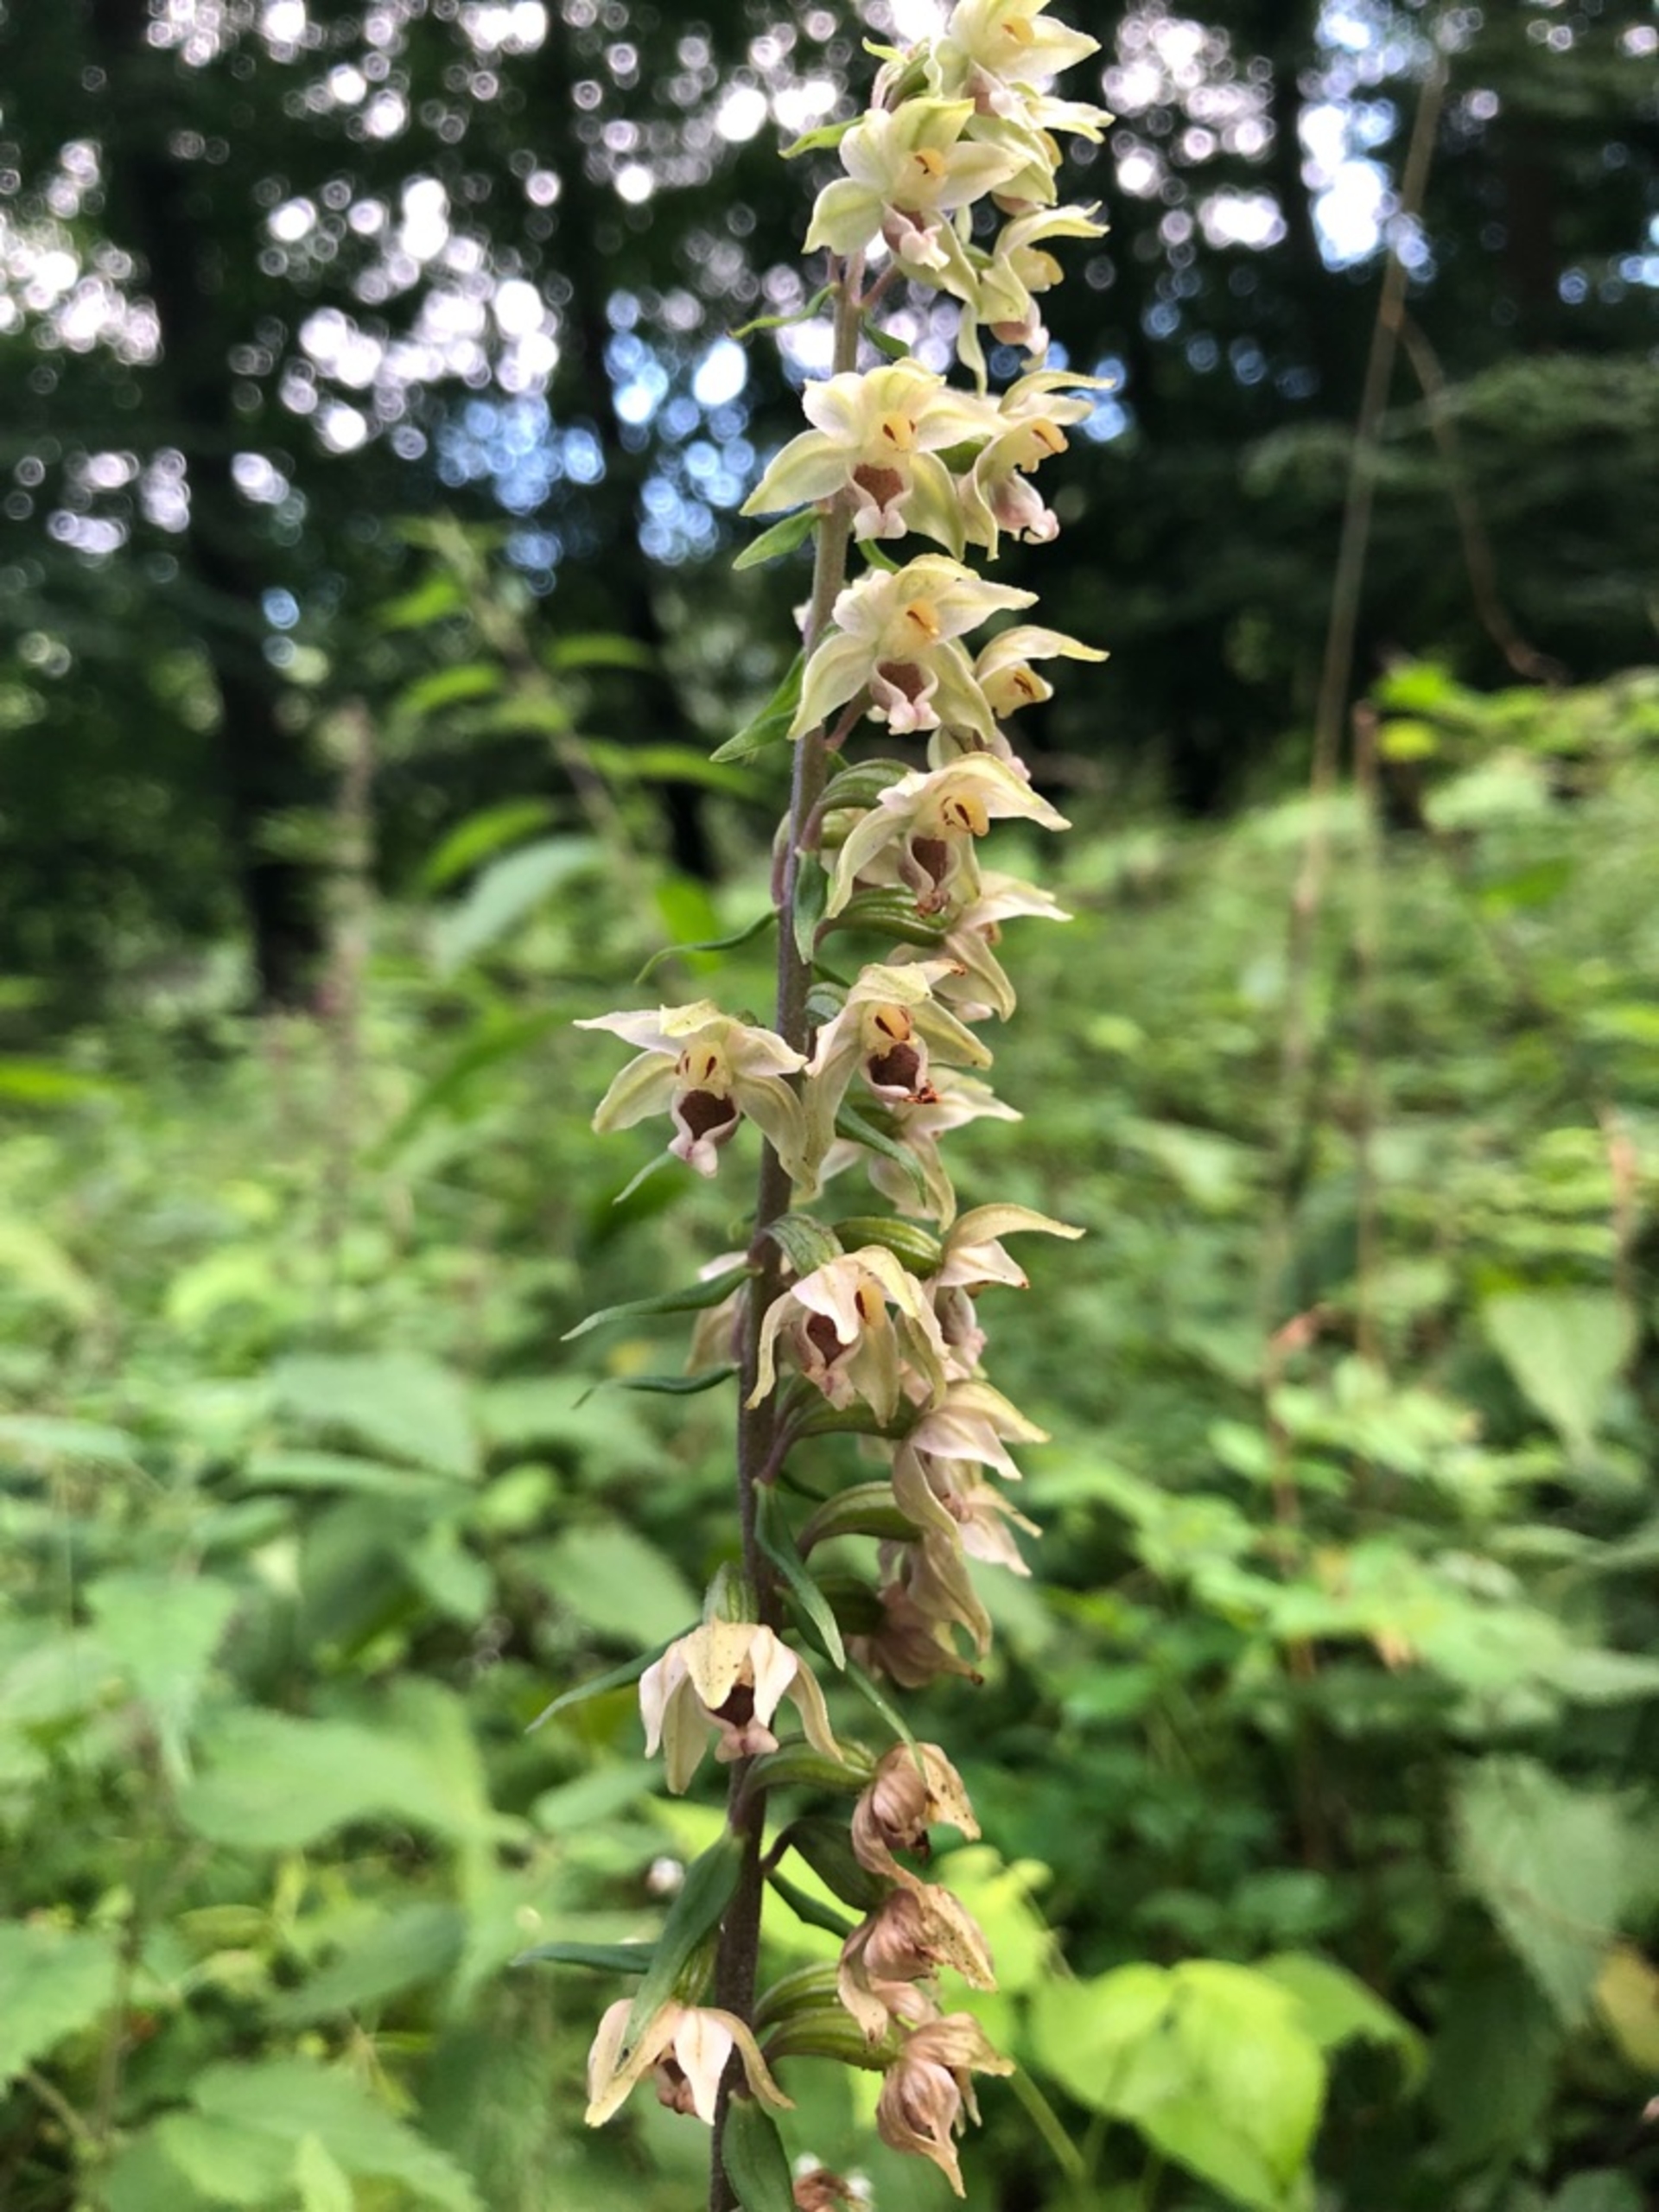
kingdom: Plantae
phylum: Tracheophyta
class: Liliopsida
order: Asparagales
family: Orchidaceae
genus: Epipactis
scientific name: Epipactis helleborine
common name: Skov-hullæbe
